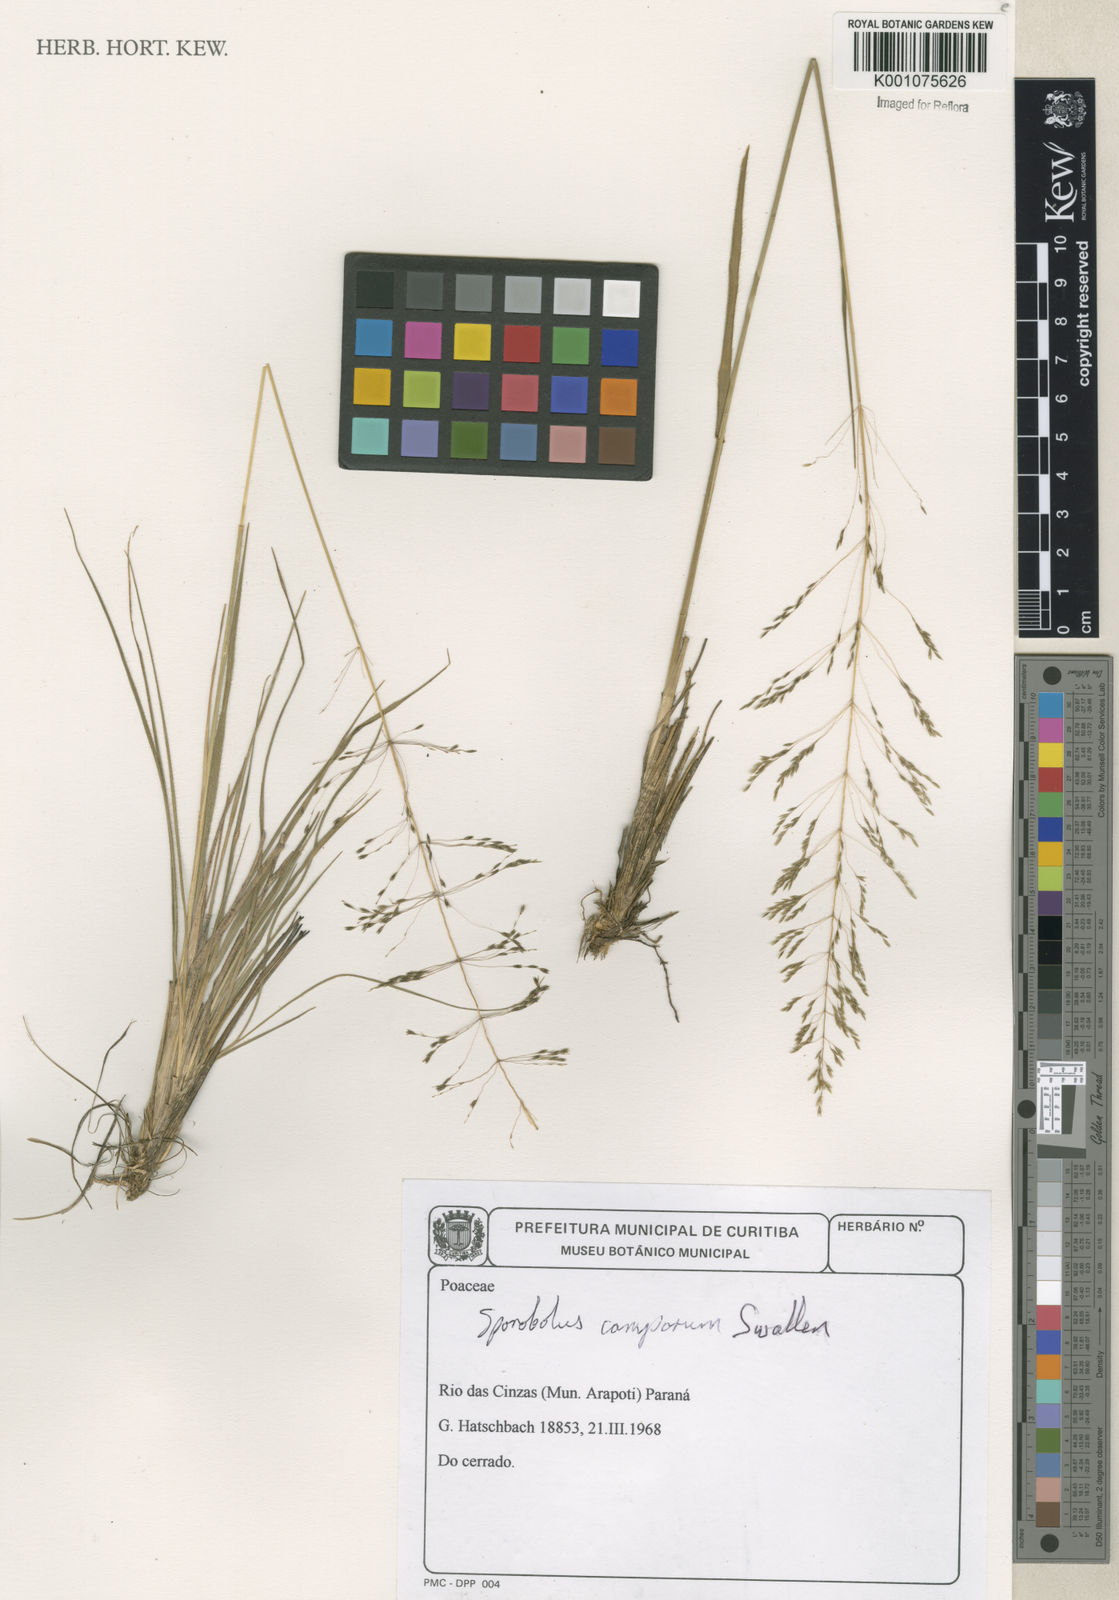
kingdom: Plantae
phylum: Tracheophyta
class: Liliopsida
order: Poales
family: Poaceae
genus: Sporobolus
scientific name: Sporobolus camporum
